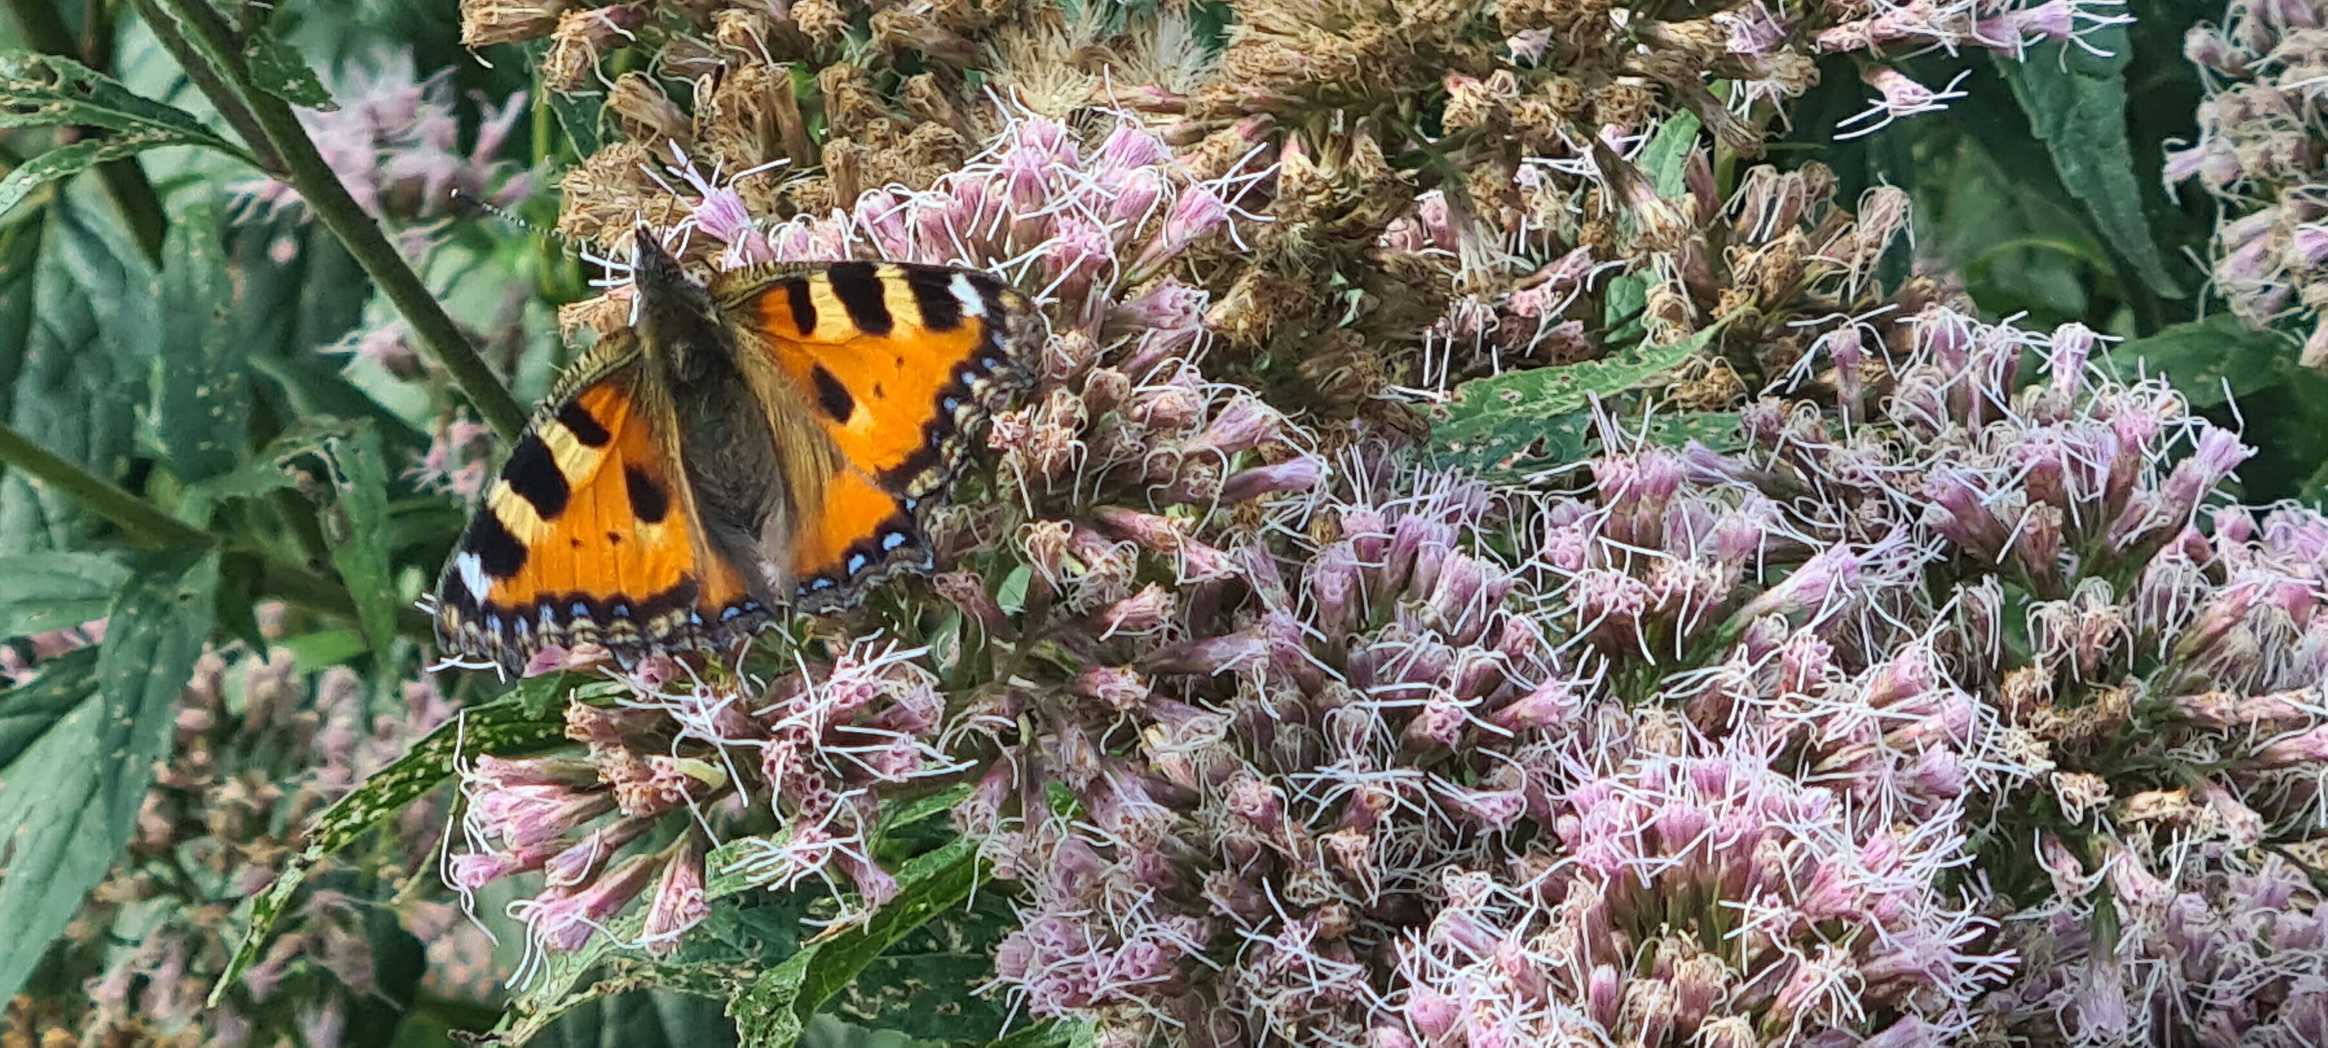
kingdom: Animalia
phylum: Arthropoda
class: Insecta
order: Lepidoptera
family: Nymphalidae
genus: Aglais
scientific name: Aglais urticae
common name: Nældens takvinge
